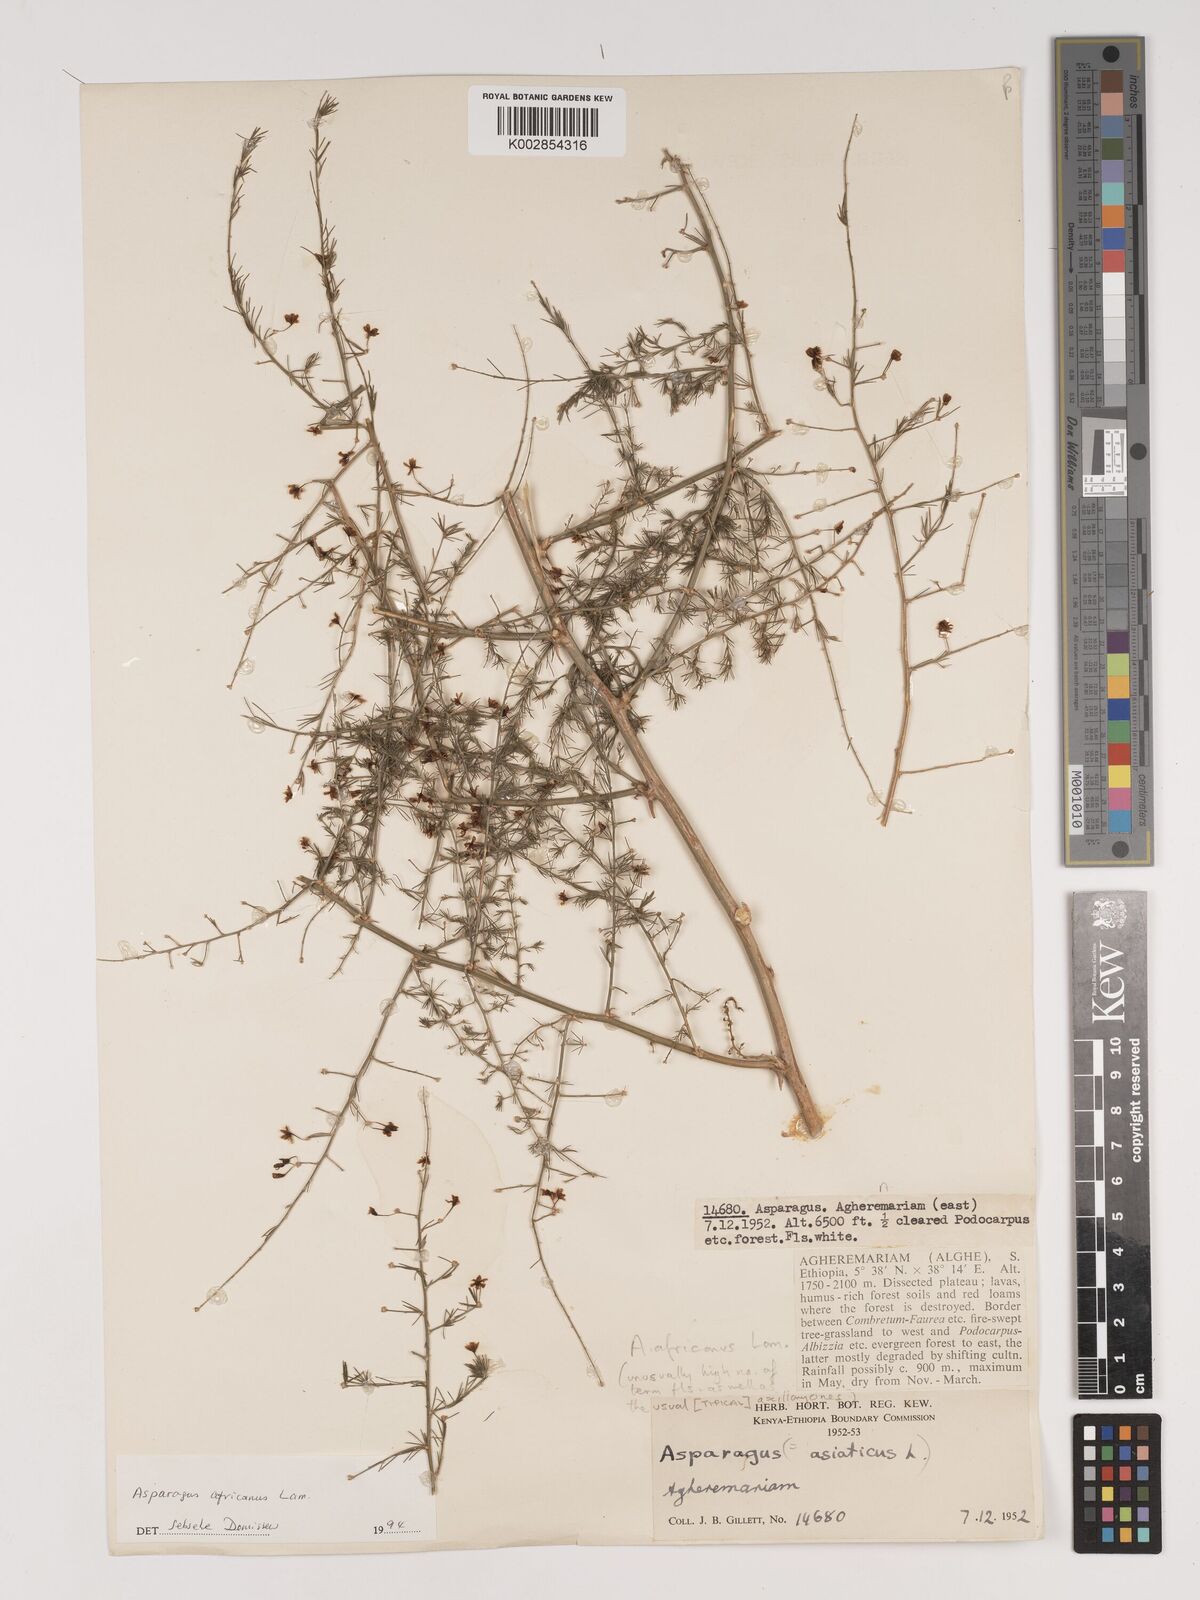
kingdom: Plantae
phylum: Tracheophyta
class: Liliopsida
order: Asparagales
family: Asparagaceae
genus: Asparagus
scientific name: Asparagus africanus
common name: Asparagus-fern
